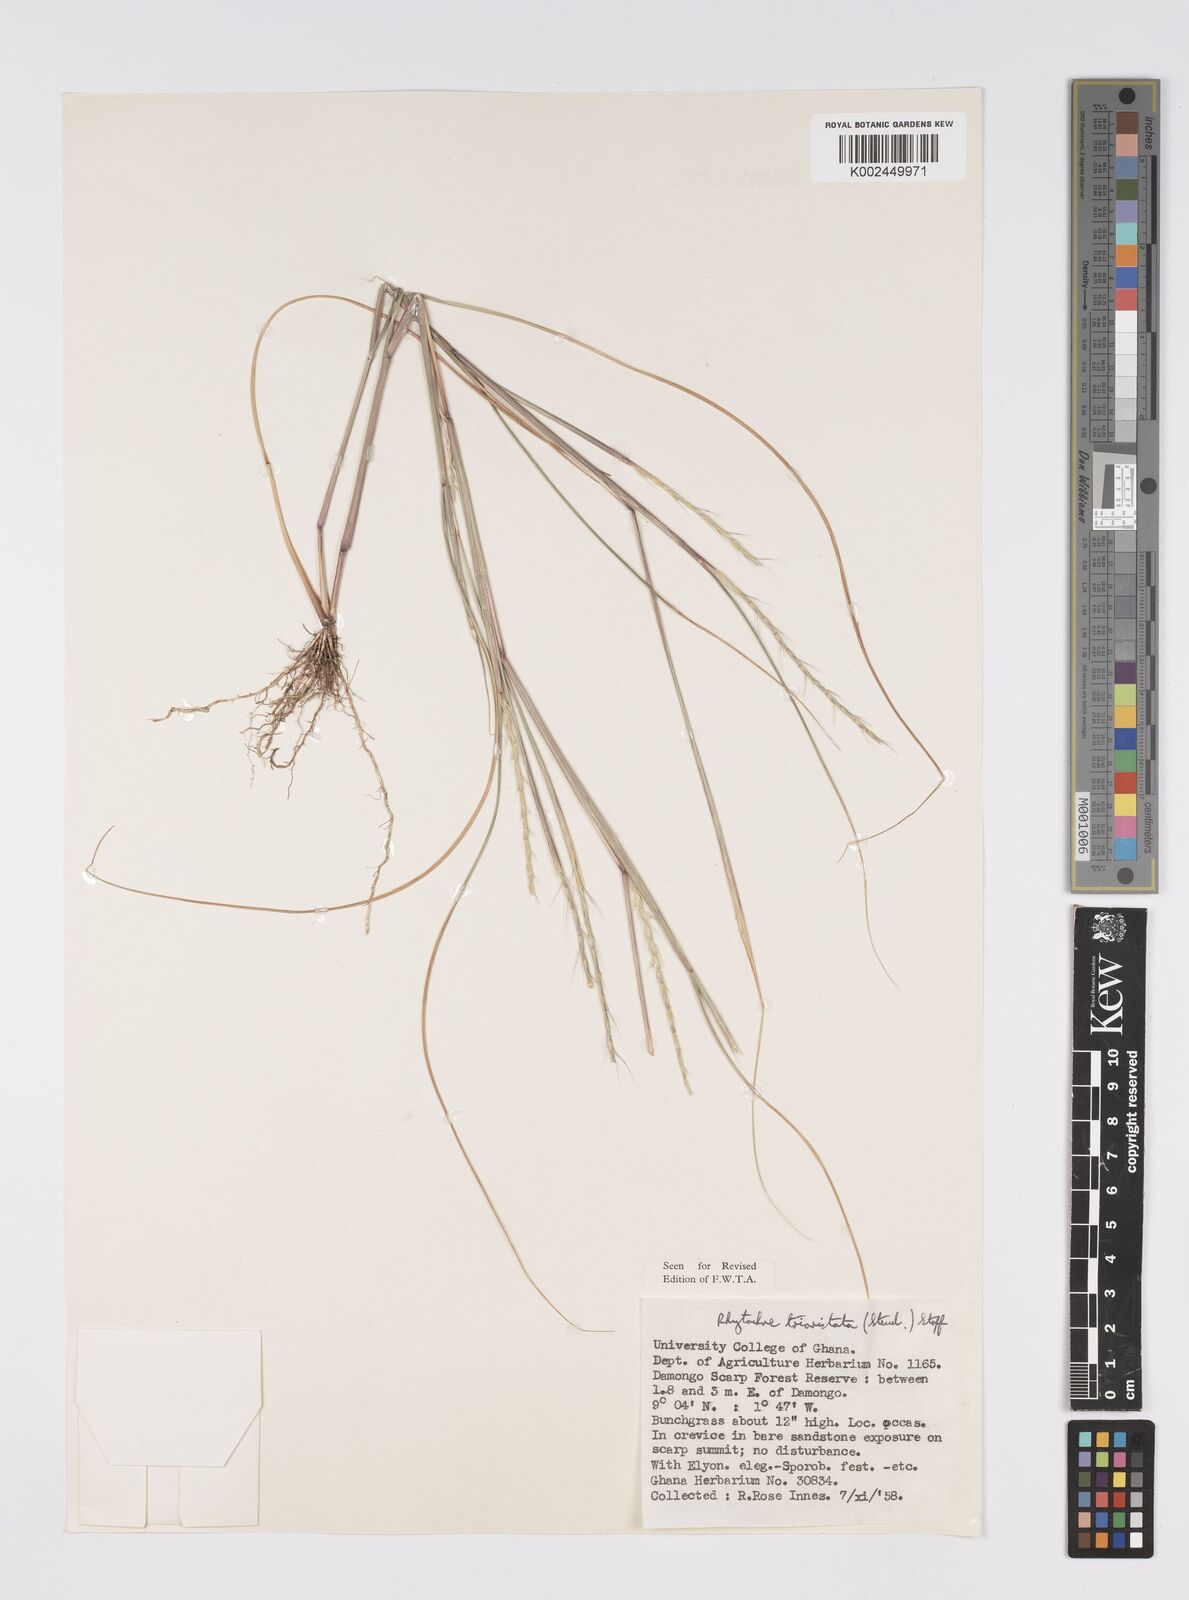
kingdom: Plantae
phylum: Tracheophyta
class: Liliopsida
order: Poales
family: Poaceae
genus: Rhytachne
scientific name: Rhytachne triaristata
